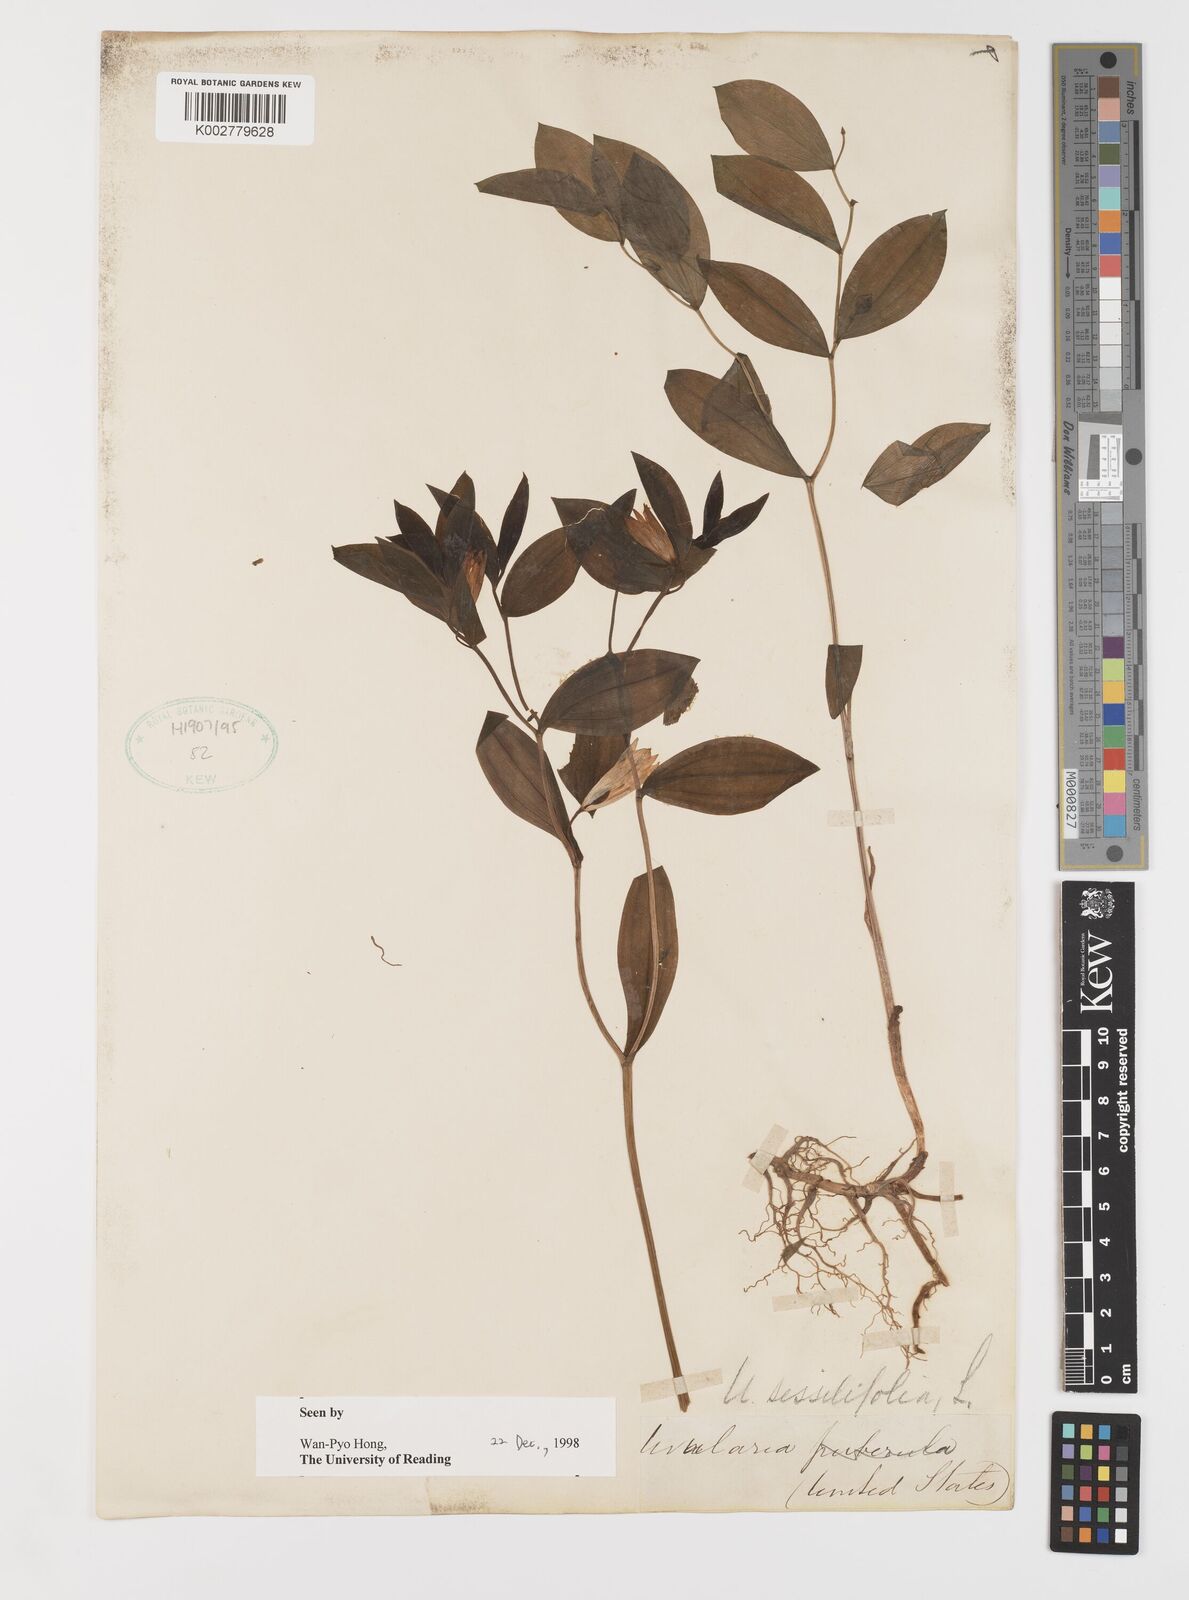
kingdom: Plantae
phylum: Tracheophyta
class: Liliopsida
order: Liliales
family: Colchicaceae
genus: Uvularia
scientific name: Uvularia sessilifolia
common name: Straw-lily
